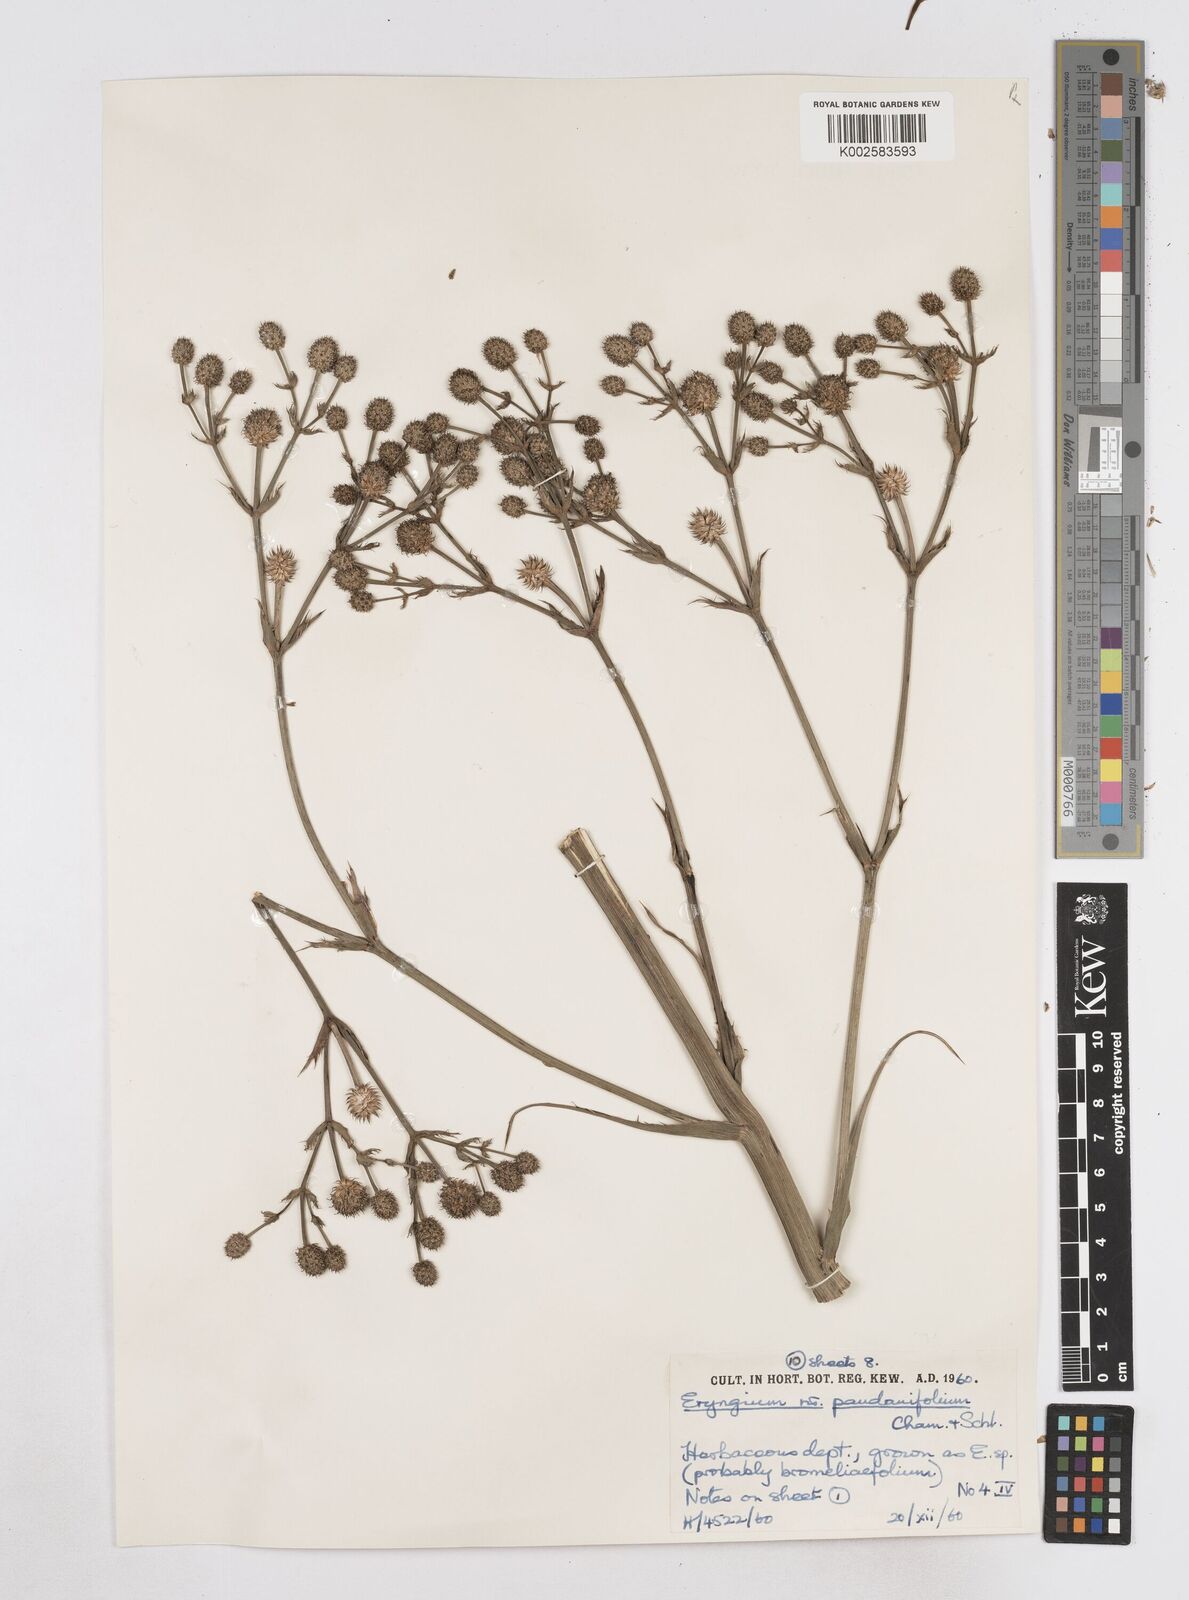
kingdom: Plantae
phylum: Tracheophyta
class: Magnoliopsida
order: Apiales
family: Apiaceae
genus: Eryngium
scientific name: Eryngium pandanifolium
